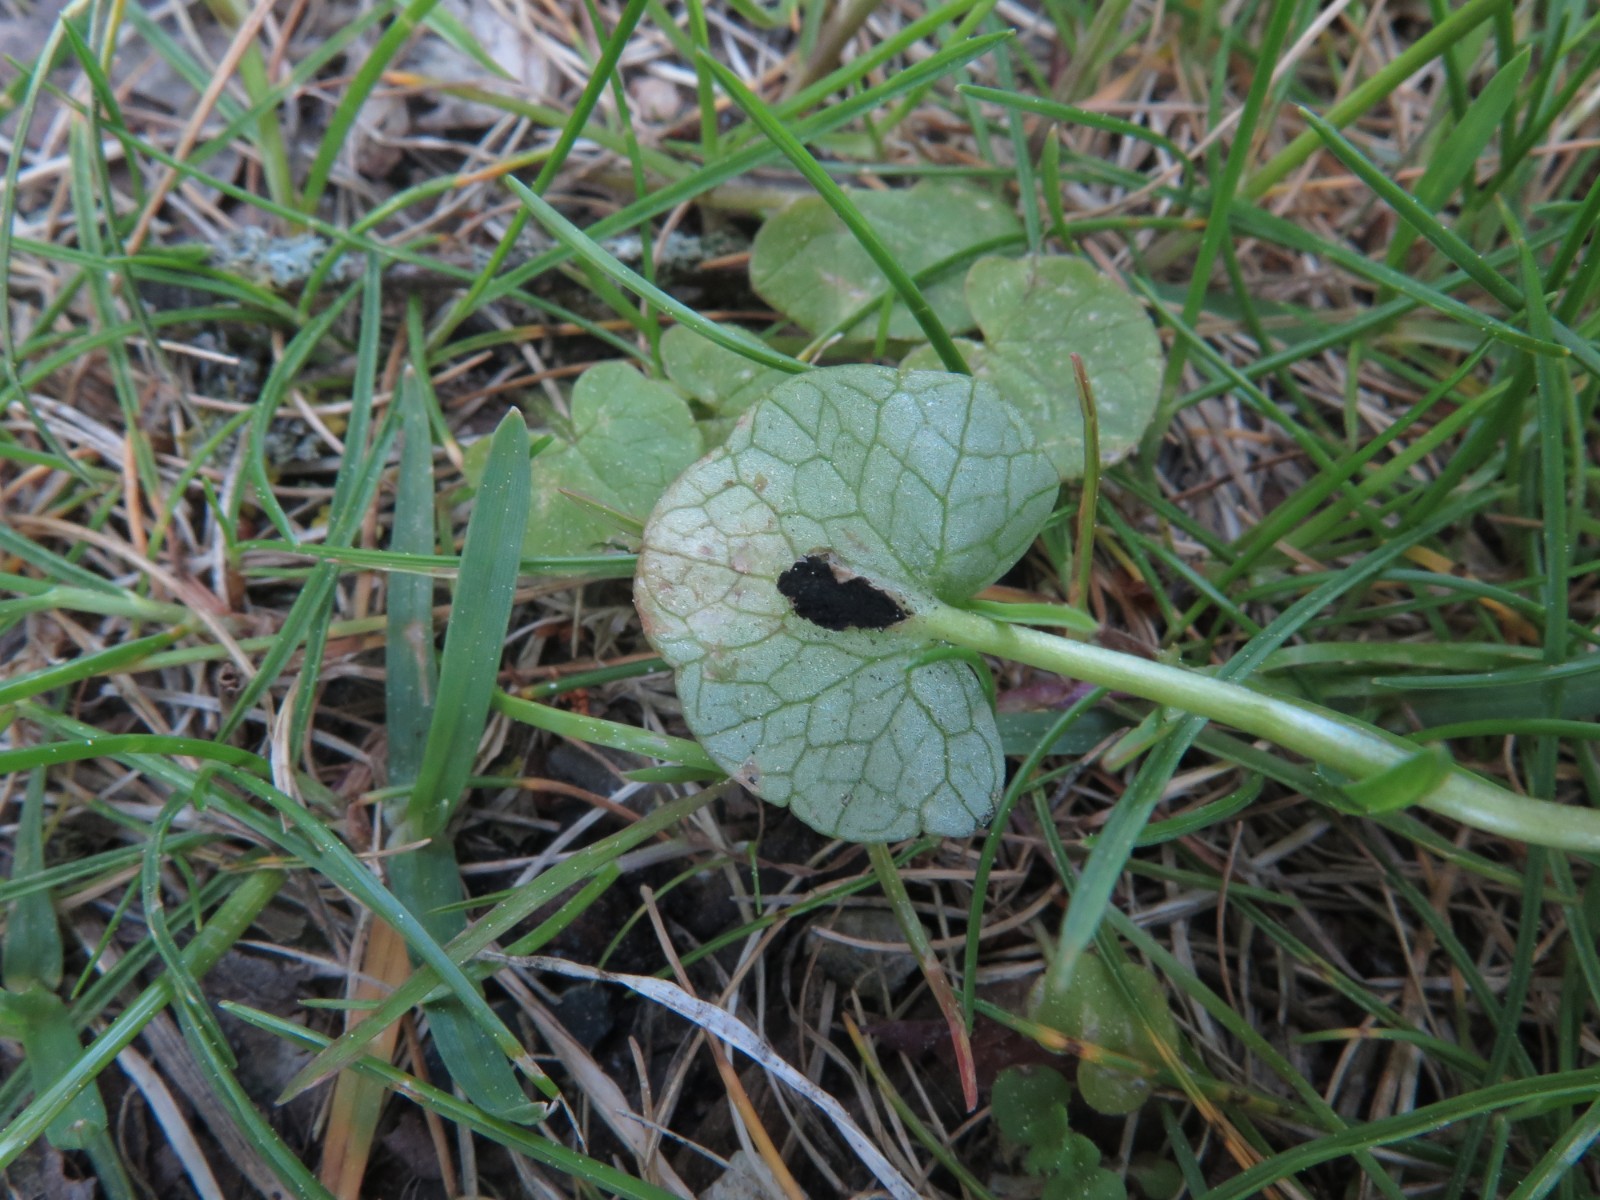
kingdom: Fungi
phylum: Basidiomycota
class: Ustilaginomycetes
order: Urocystidales
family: Urocystidaceae
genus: Urocystis
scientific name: Urocystis ficariae
